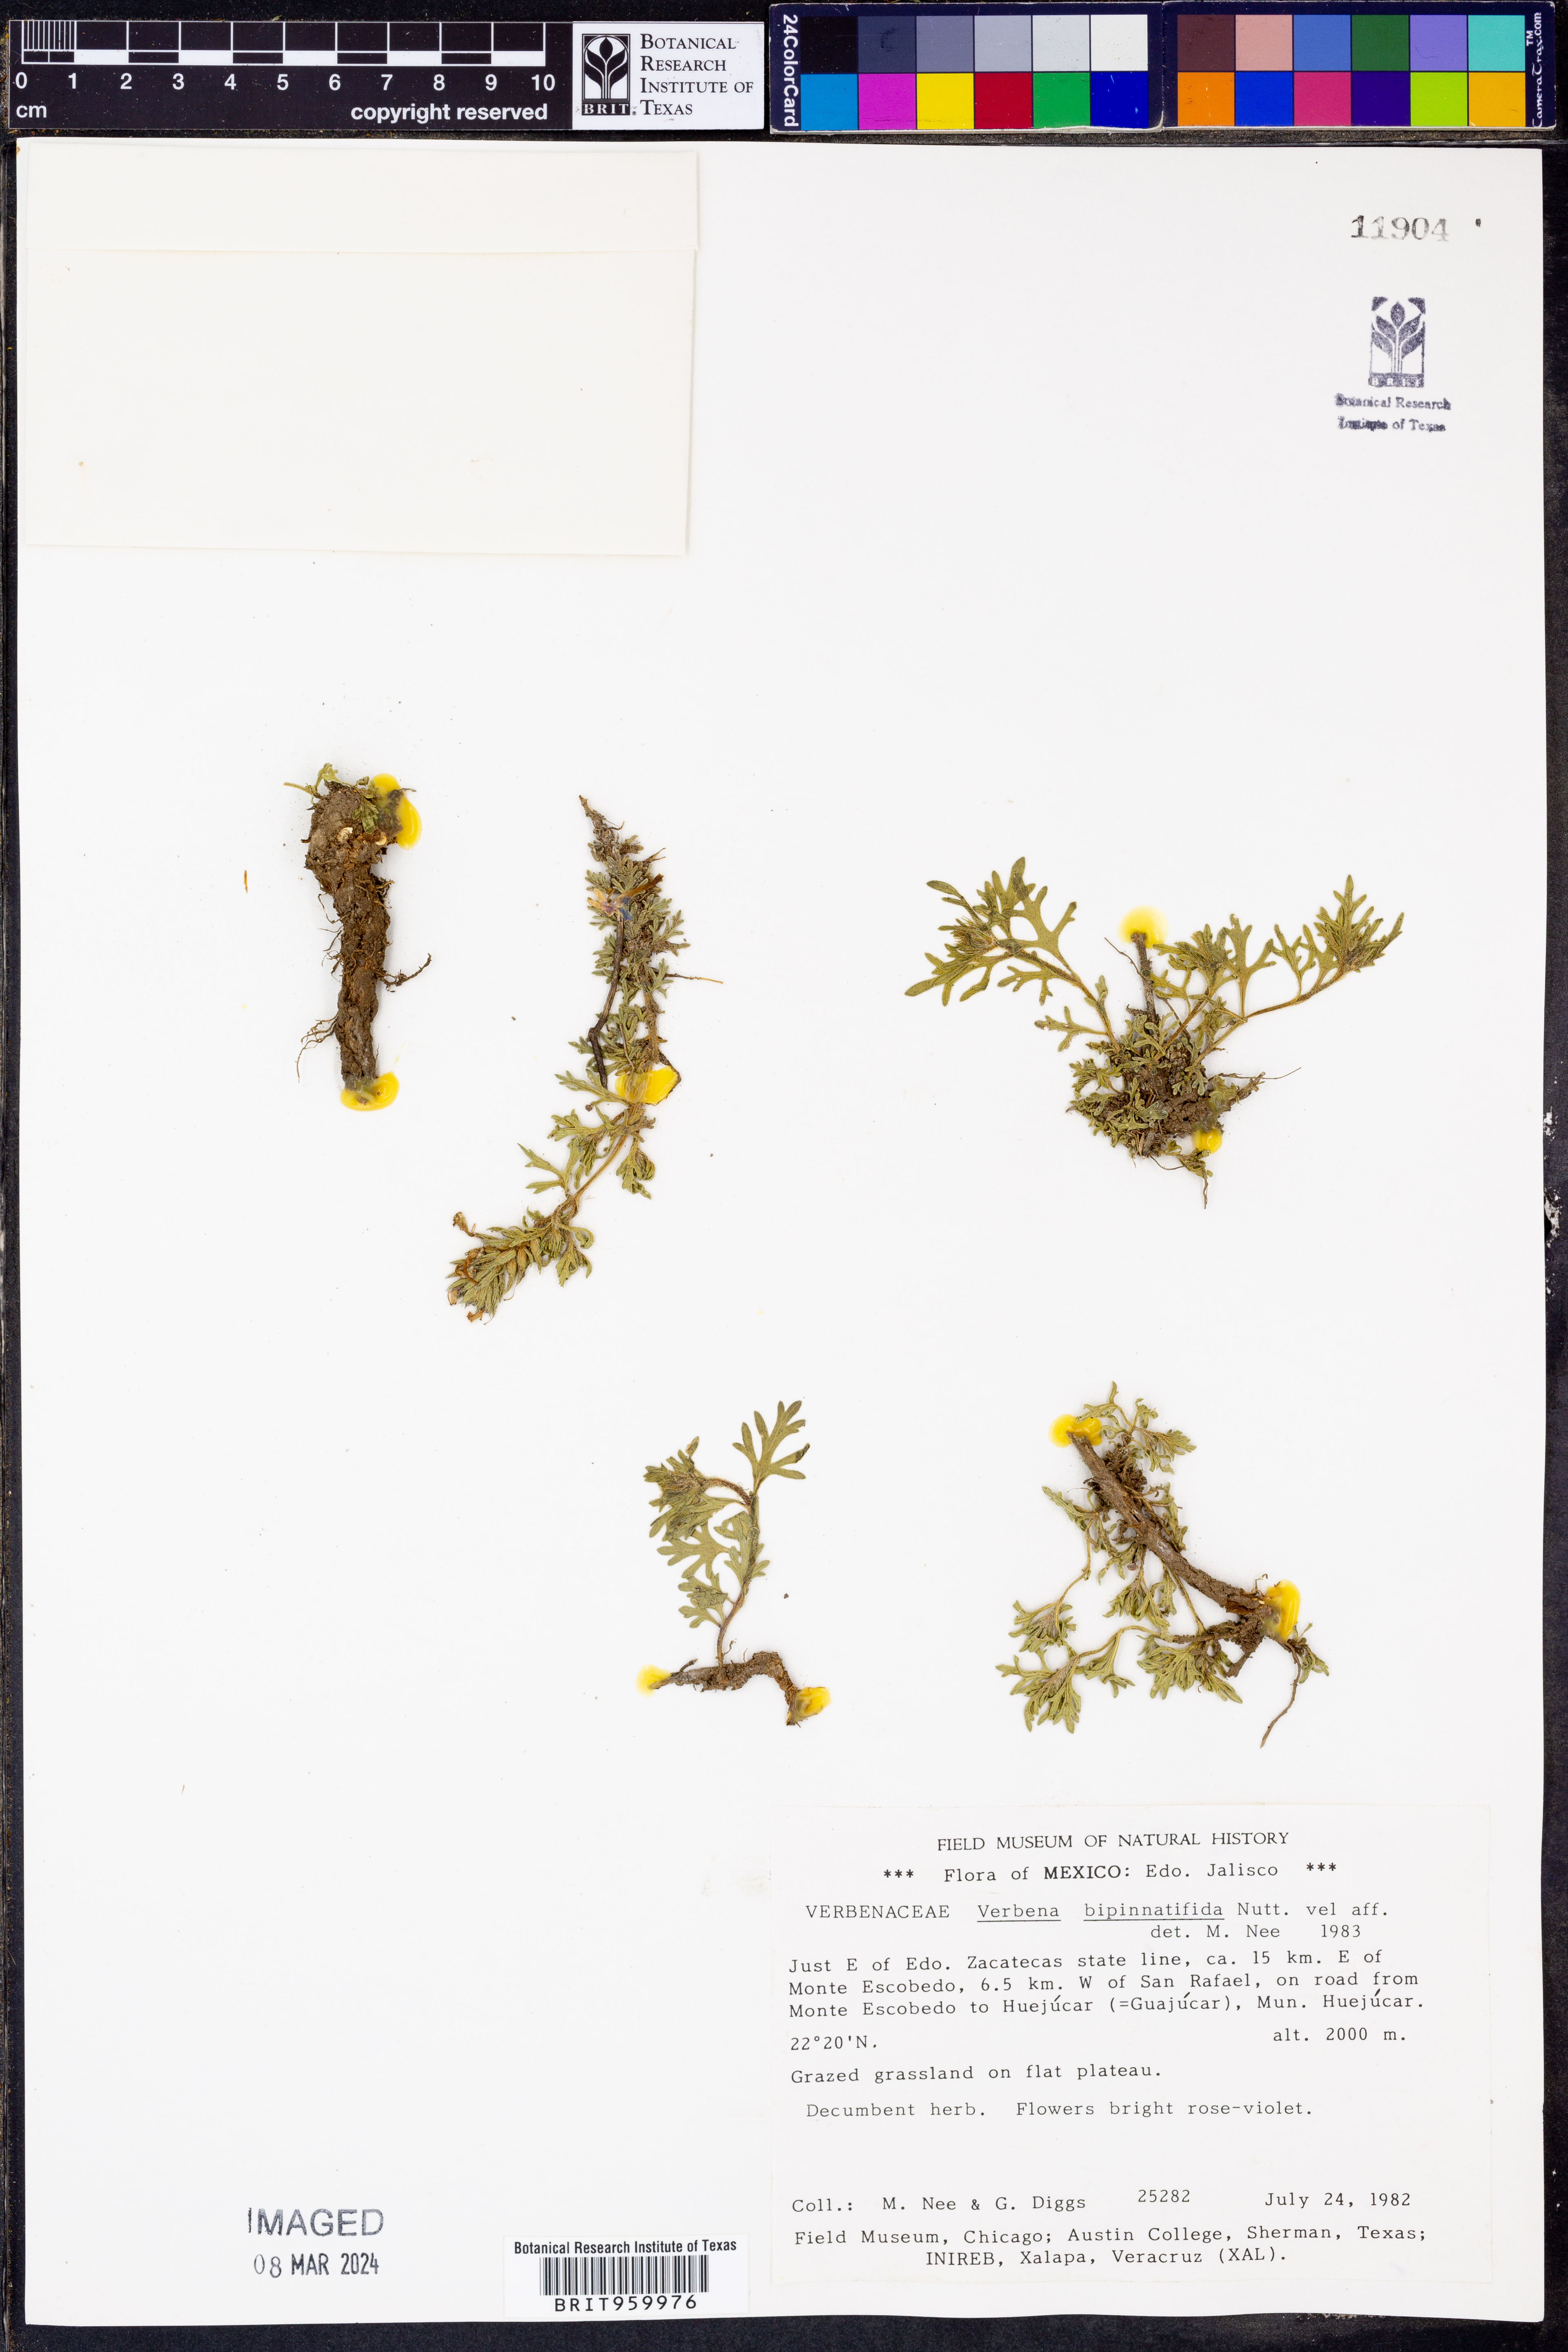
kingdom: Plantae
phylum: Tracheophyta
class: Magnoliopsida
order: Lamiales
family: Verbenaceae
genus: Verbena
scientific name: Verbena
